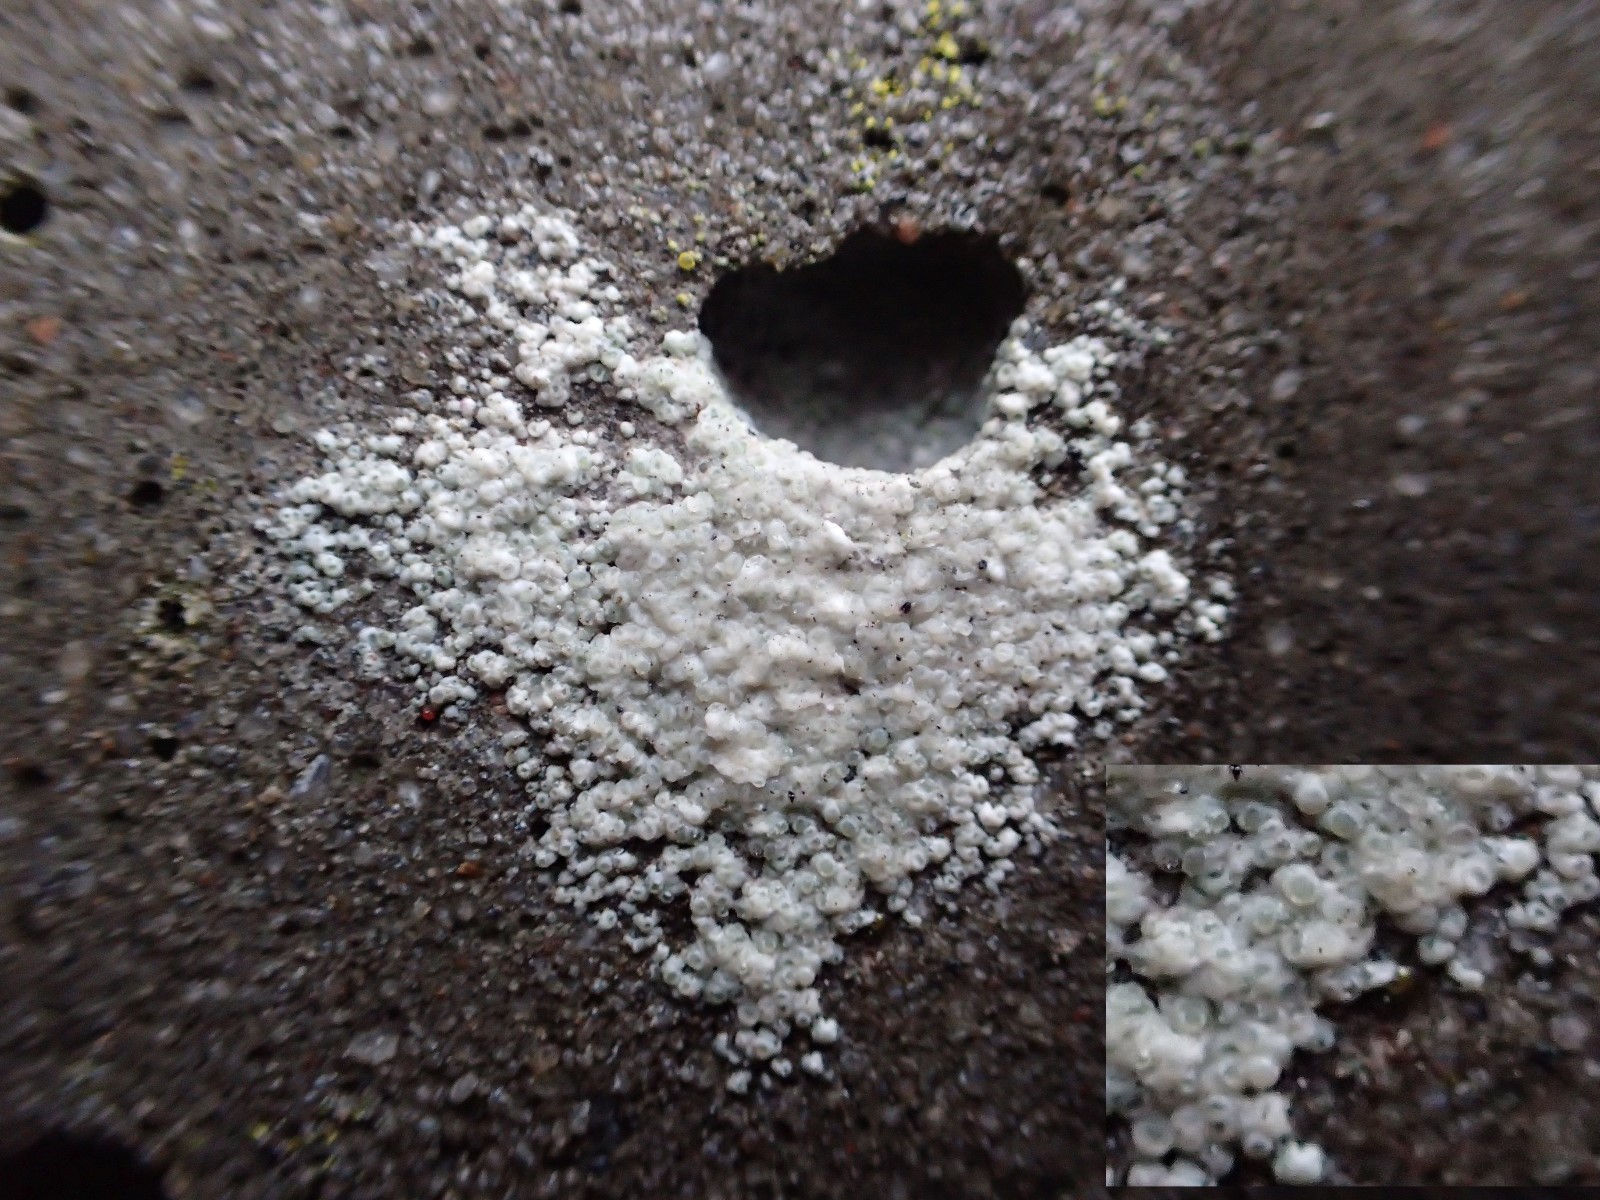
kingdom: Fungi
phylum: Ascomycota
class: Lecanoromycetes
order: Lecanorales
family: Lecanoraceae
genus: Polyozosia
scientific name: Polyozosia albescens
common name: cement-kantskivelav
